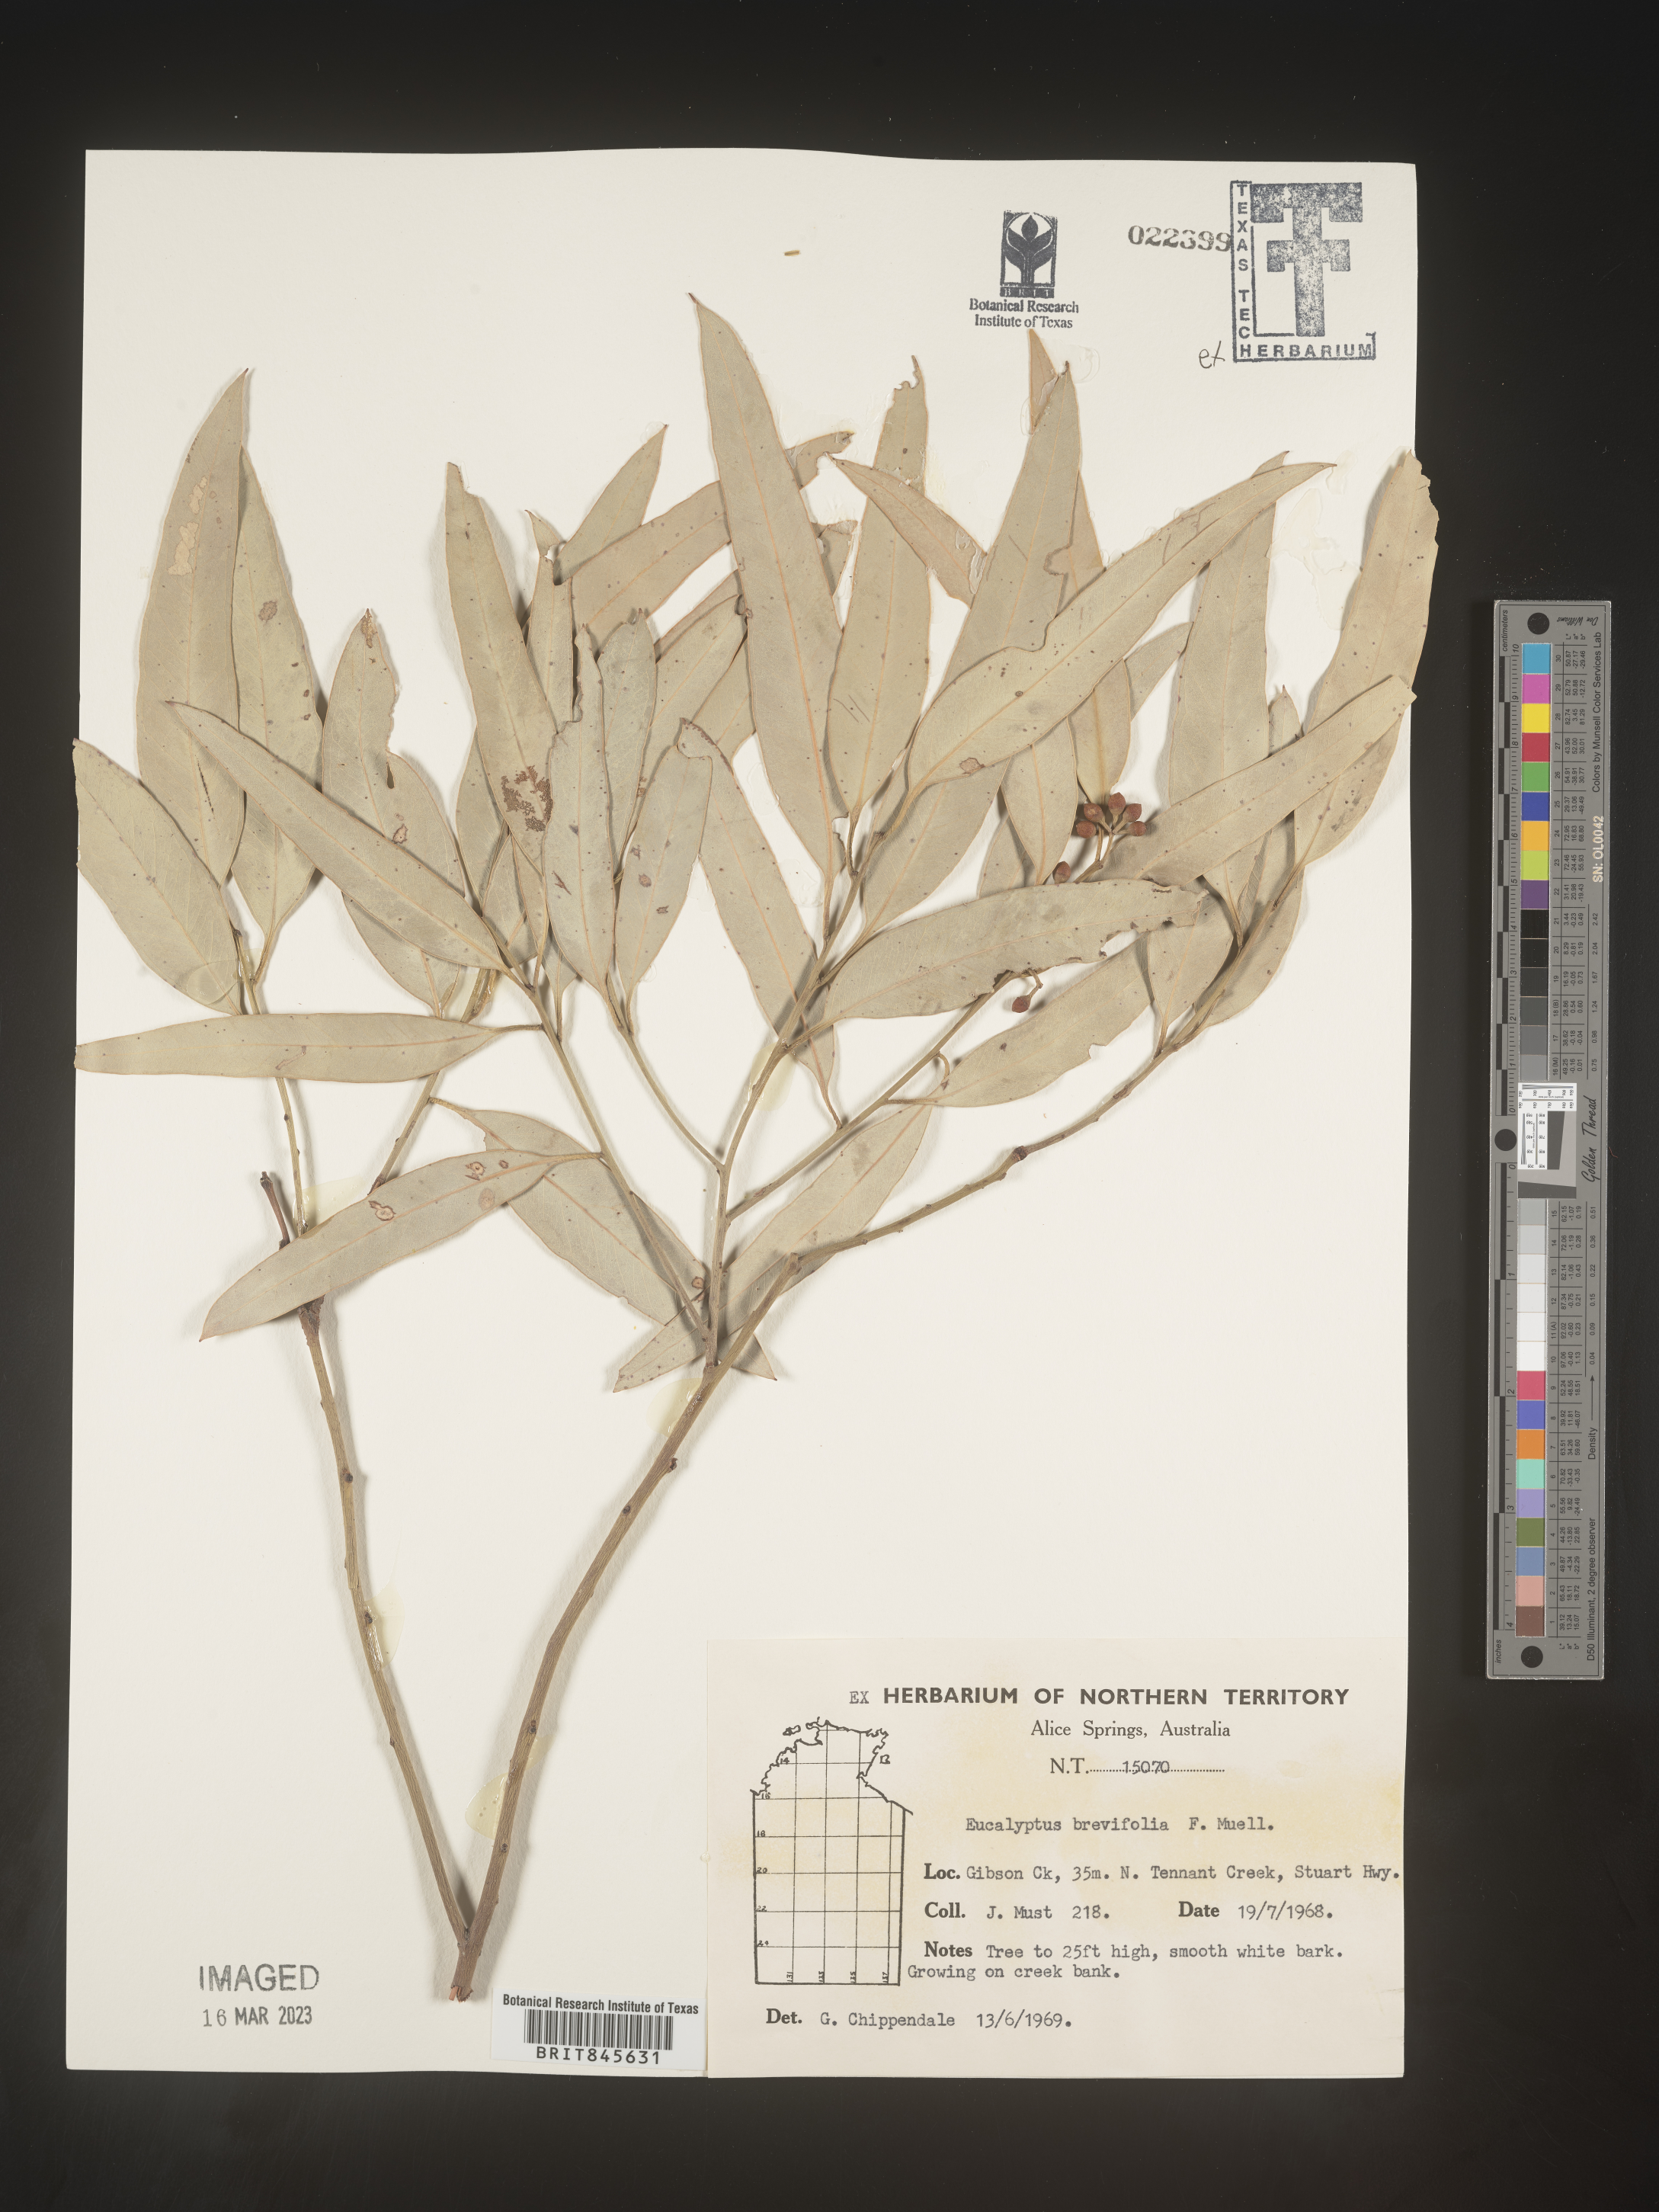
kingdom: Plantae
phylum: Tracheophyta
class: Magnoliopsida
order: Myrtales
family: Myrtaceae
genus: Eucalyptus
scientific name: Eucalyptus
